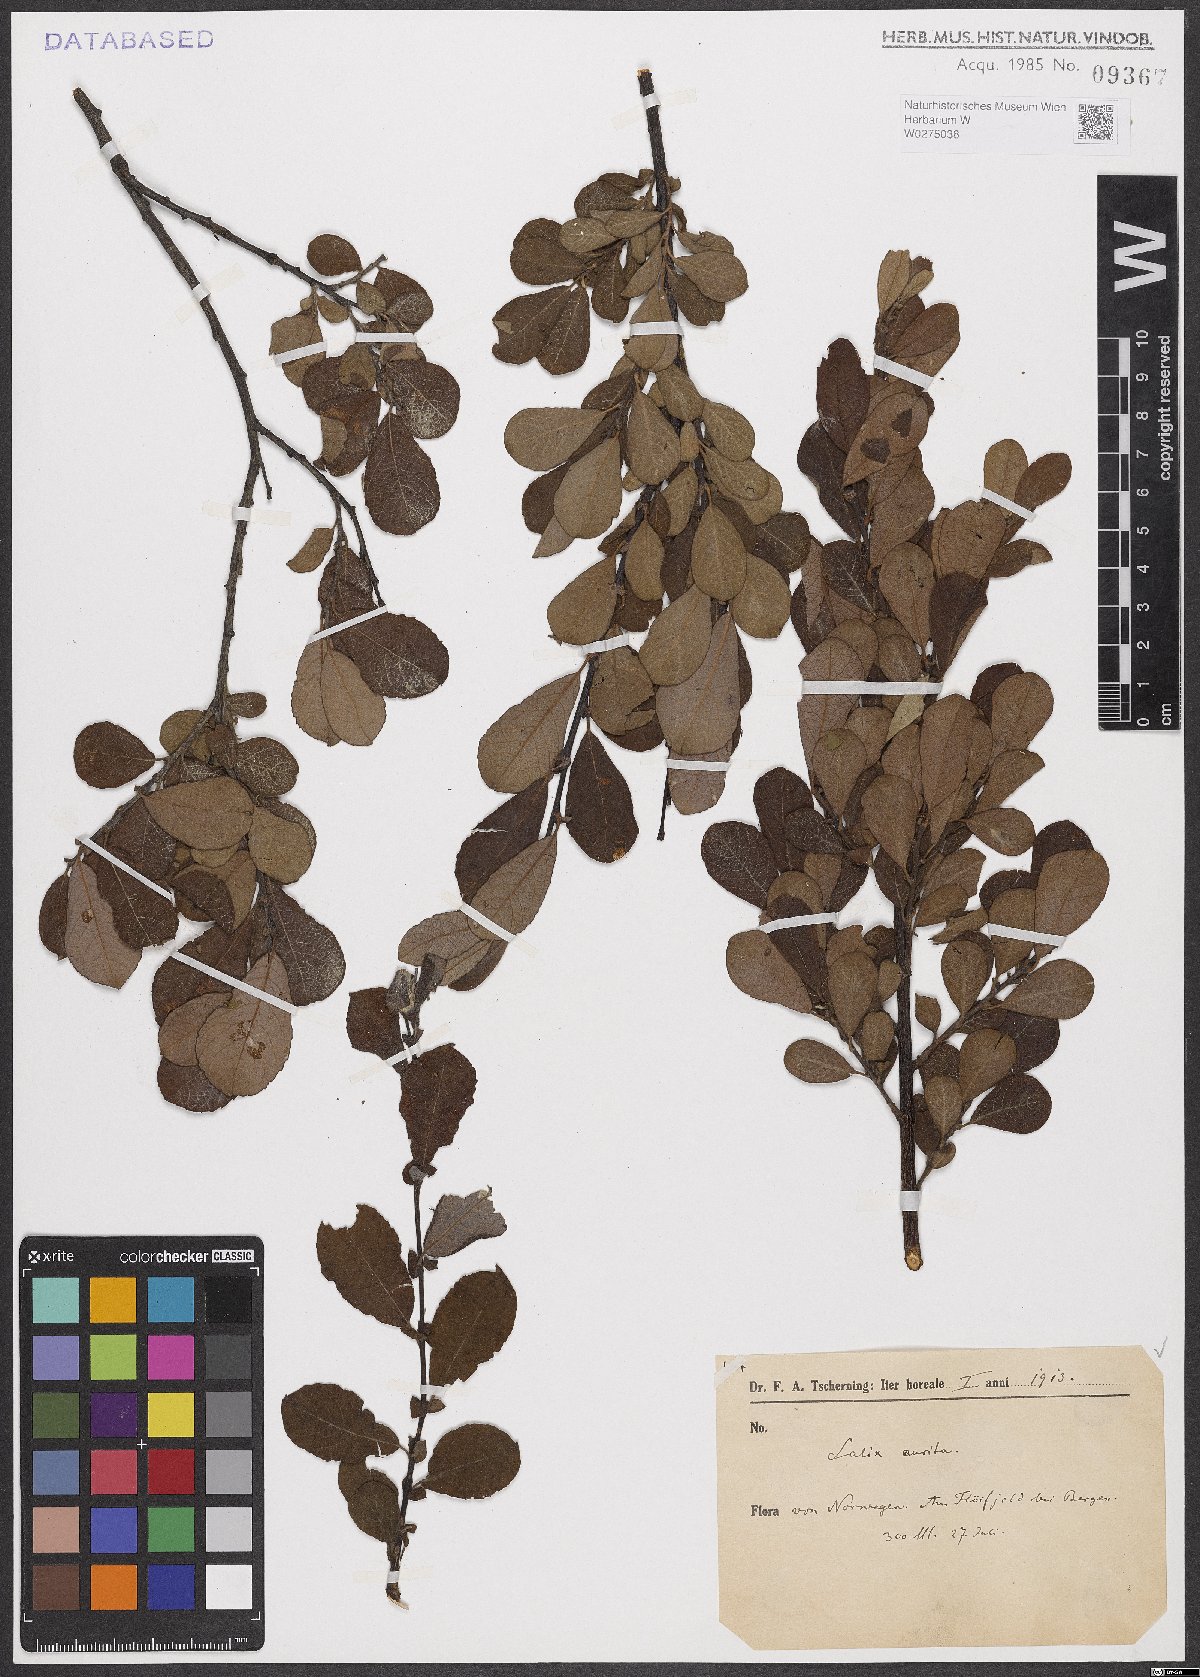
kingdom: Plantae
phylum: Tracheophyta
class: Magnoliopsida
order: Malpighiales
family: Salicaceae
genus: Salix
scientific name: Salix aurita
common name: Eared willow
